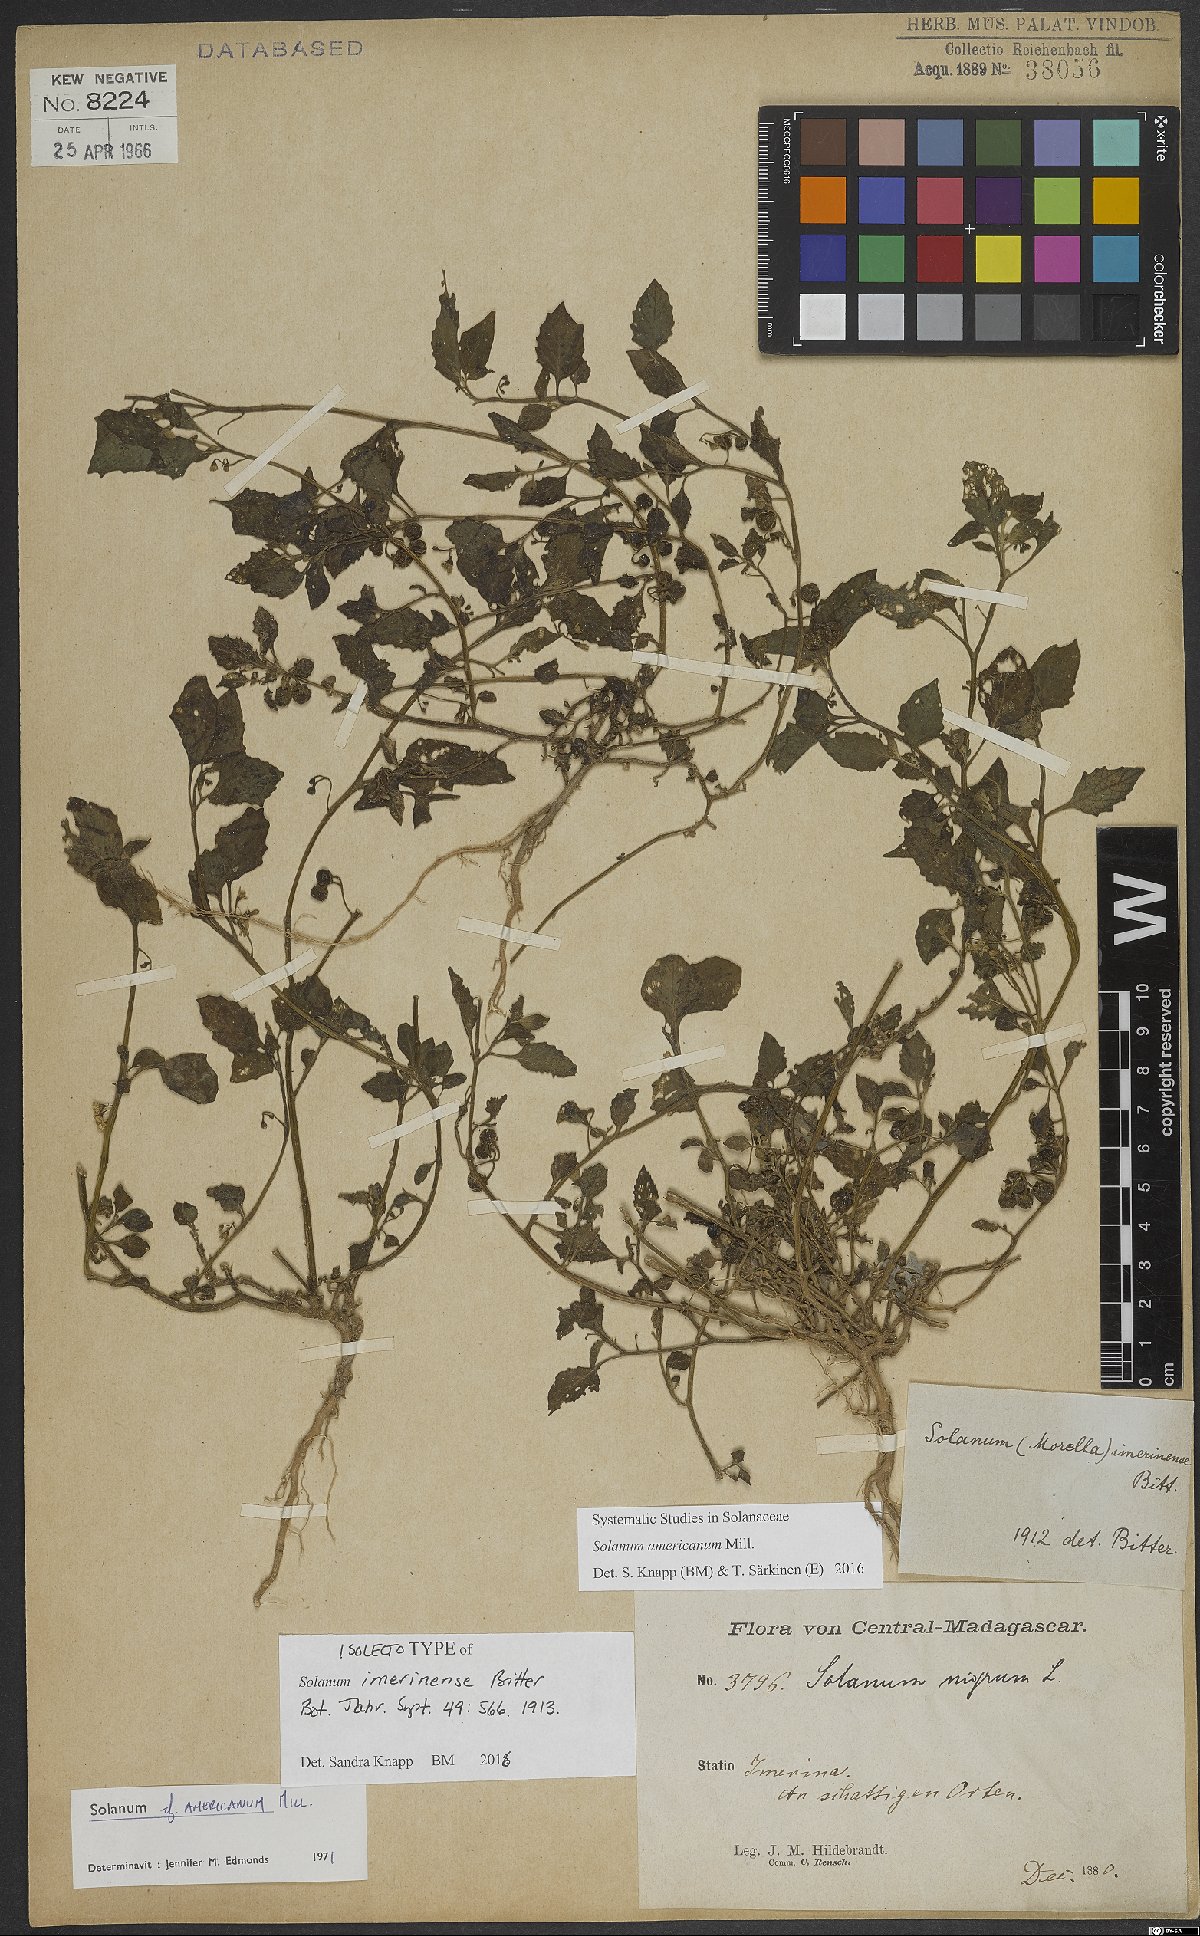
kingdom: Plantae
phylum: Tracheophyta
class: Magnoliopsida
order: Solanales
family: Solanaceae
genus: Solanum
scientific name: Solanum americanum
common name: American black nightshade
